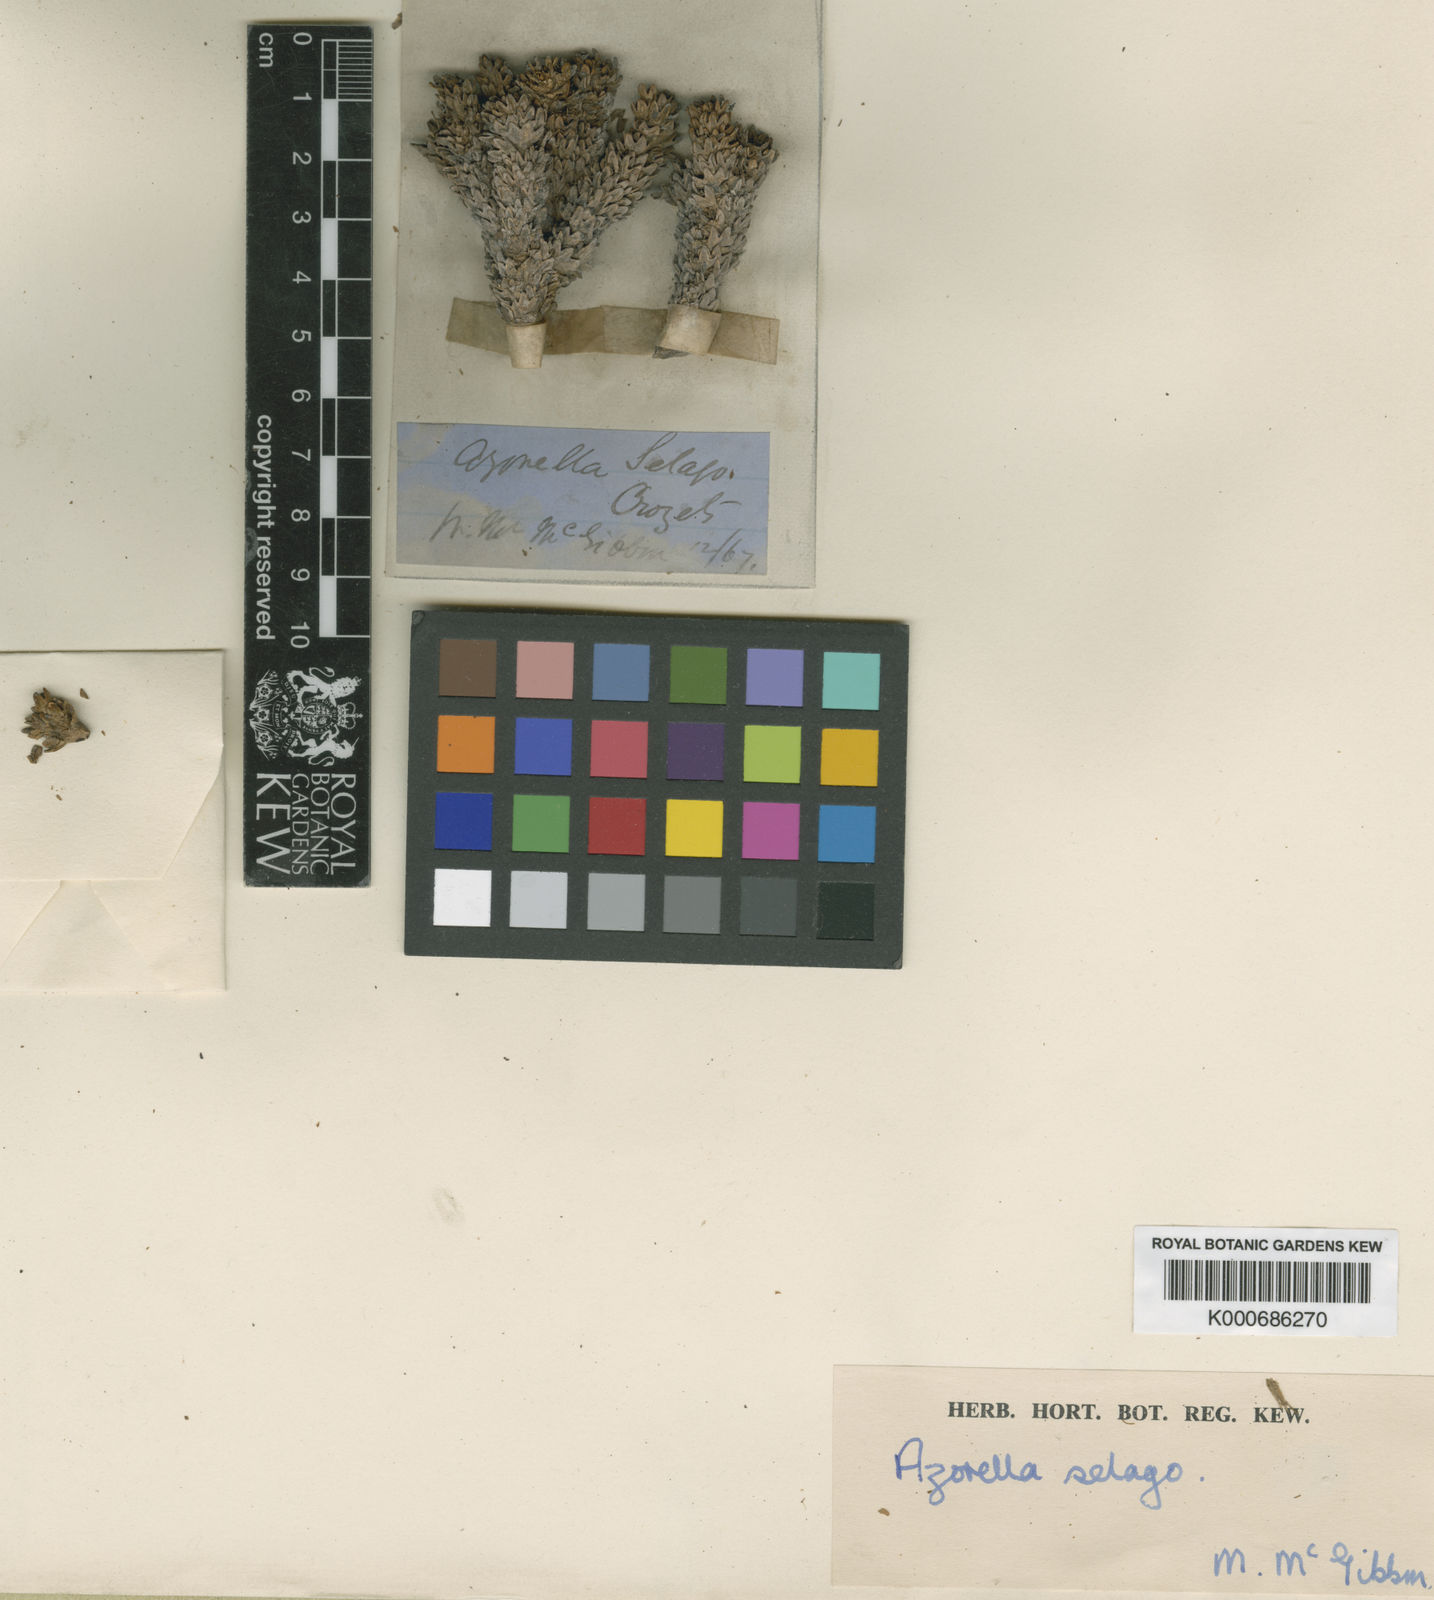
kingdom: Plantae
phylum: Tracheophyta
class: Magnoliopsida
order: Apiales
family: Apiaceae
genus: Azorella
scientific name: Azorella selago
